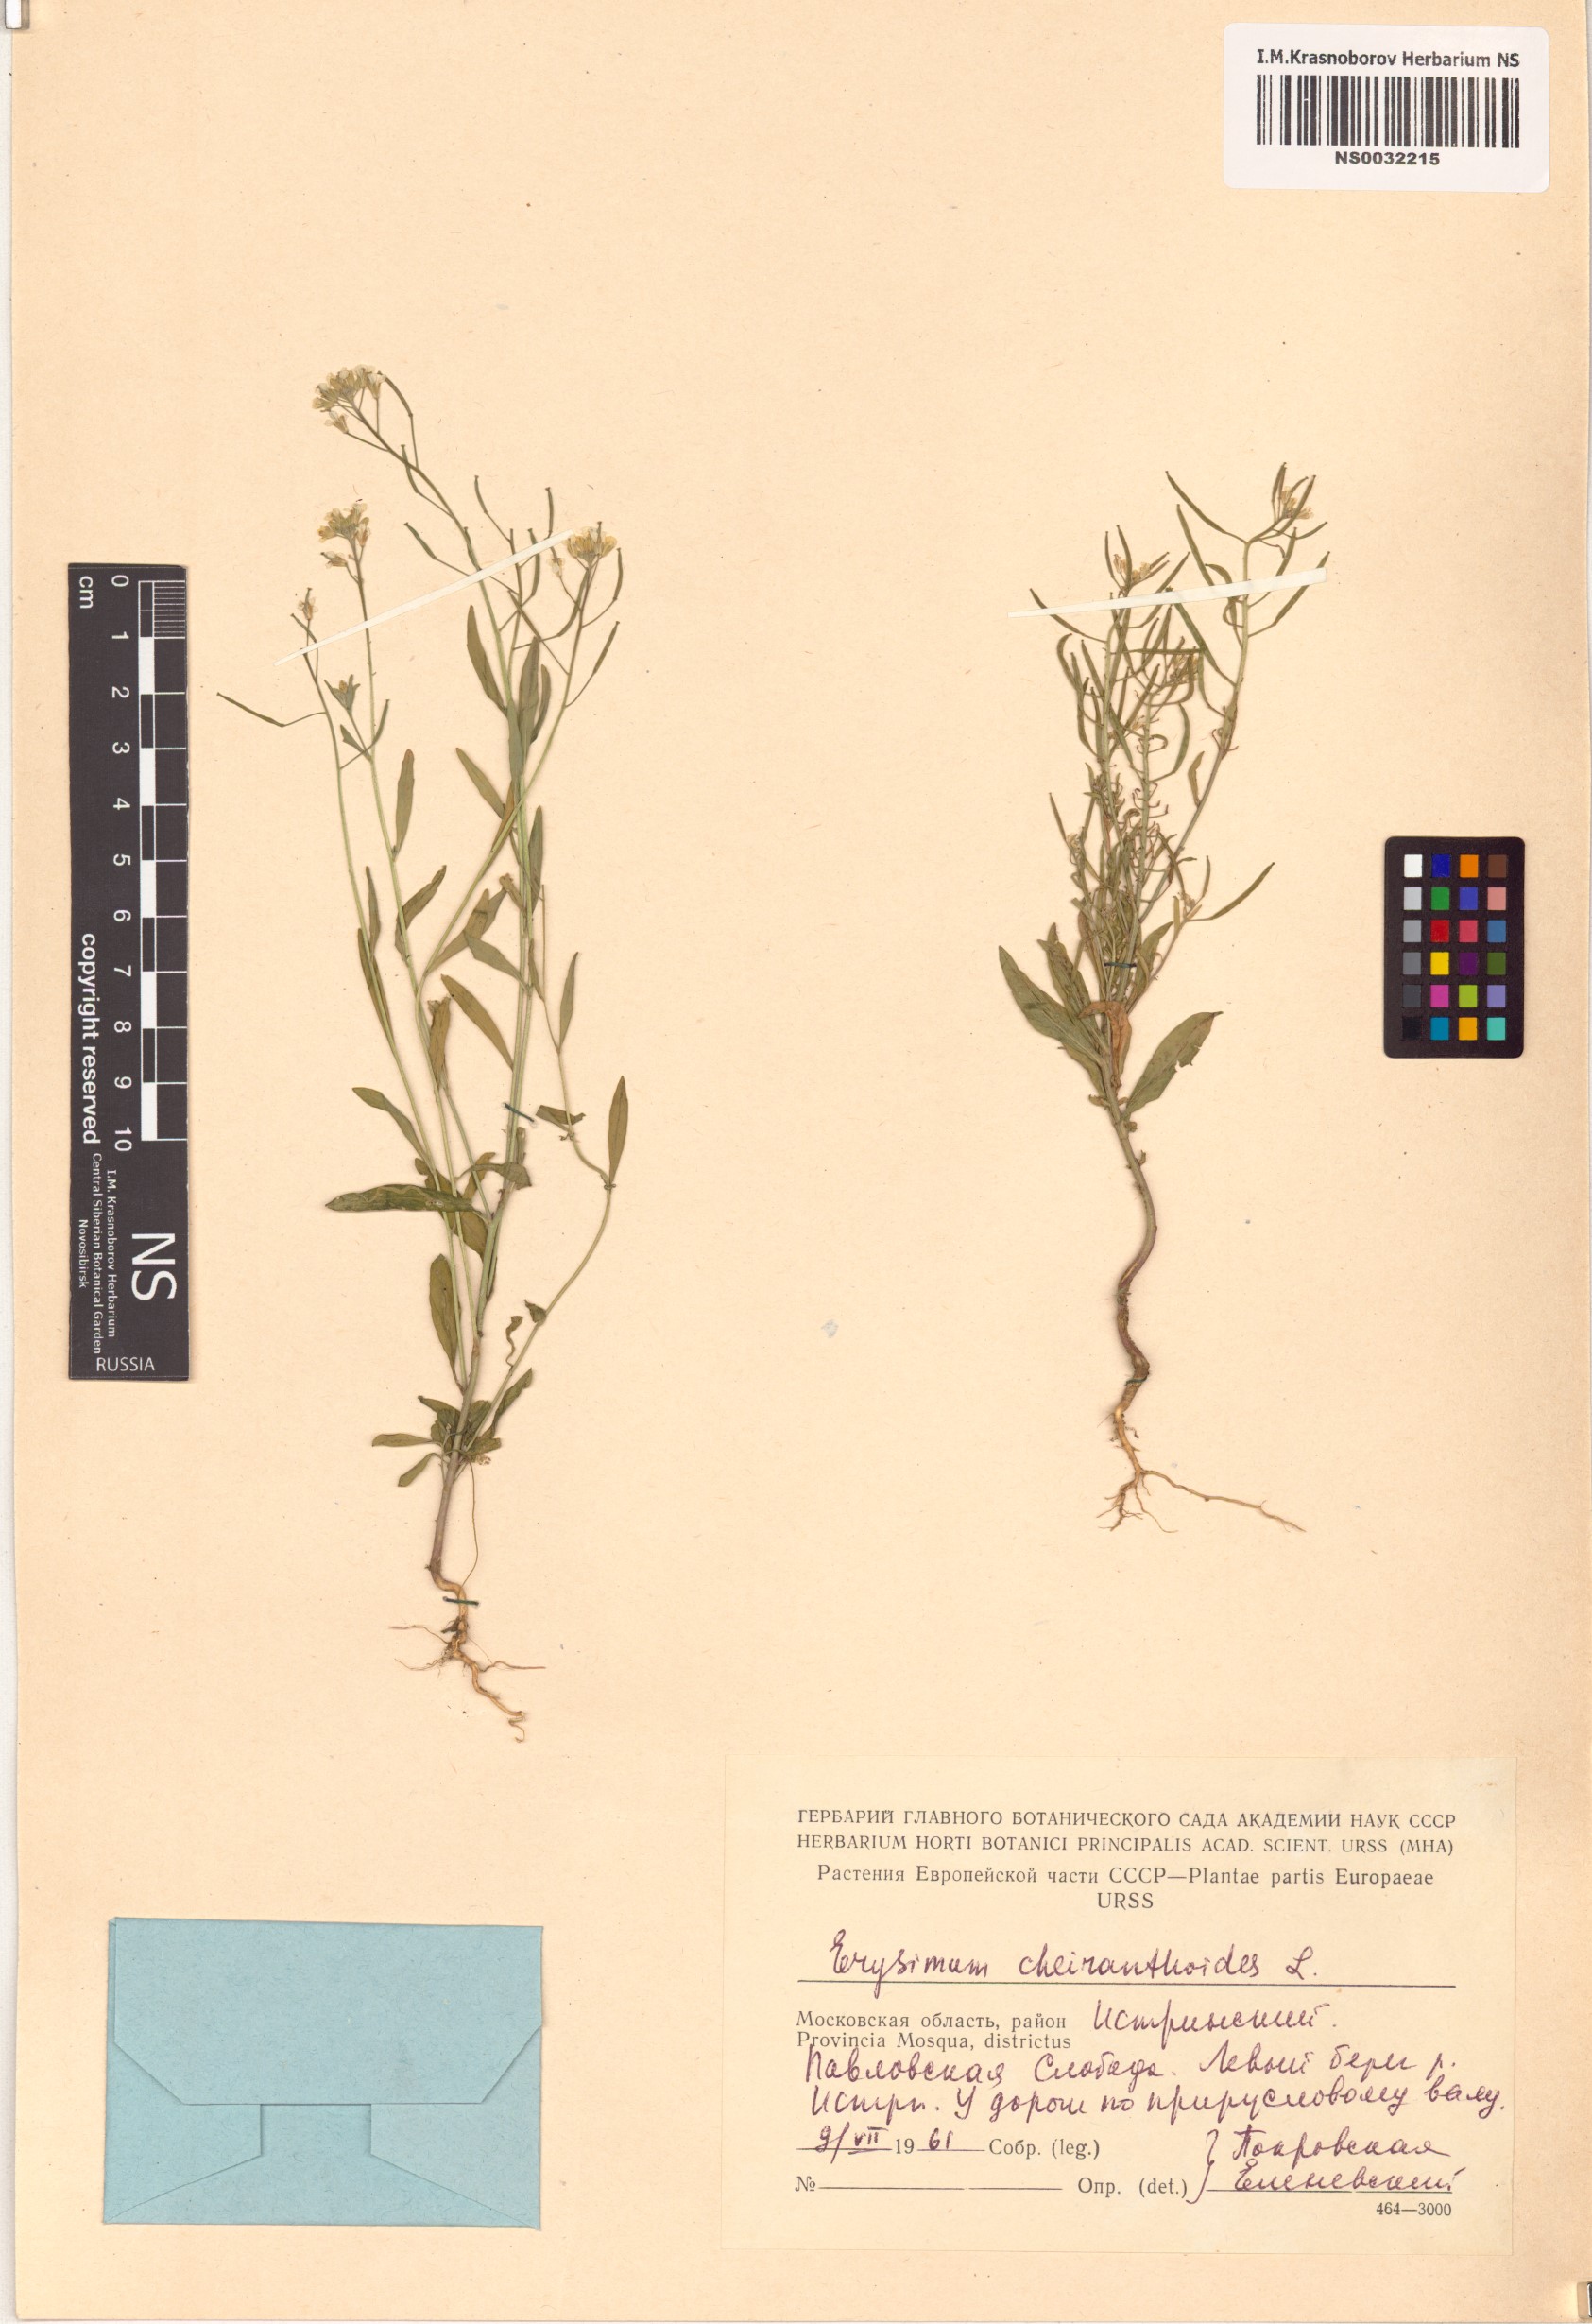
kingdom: Plantae
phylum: Tracheophyta
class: Magnoliopsida
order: Brassicales
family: Brassicaceae
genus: Erysimum
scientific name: Erysimum cheiranthoides
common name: Treacle mustard
